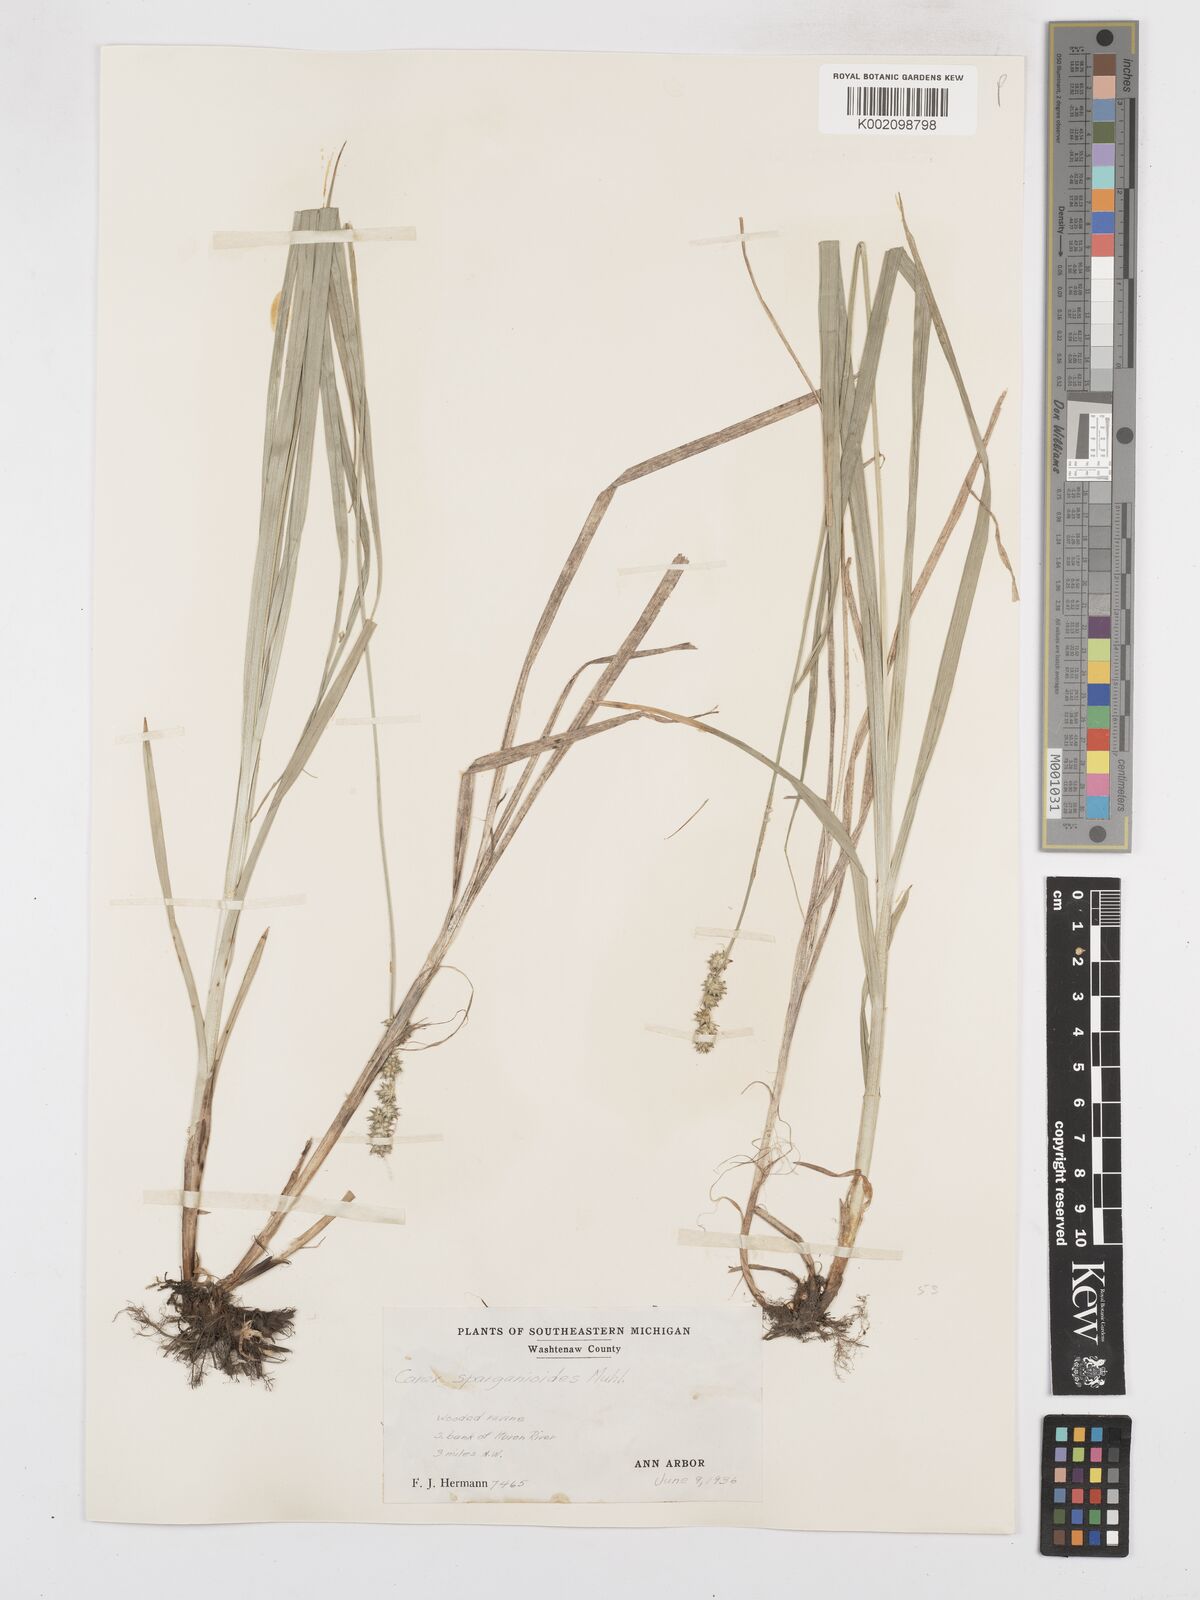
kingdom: Plantae
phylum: Tracheophyta
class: Liliopsida
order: Poales
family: Cyperaceae
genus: Carex
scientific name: Carex sparganioides
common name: Burreed sedge
